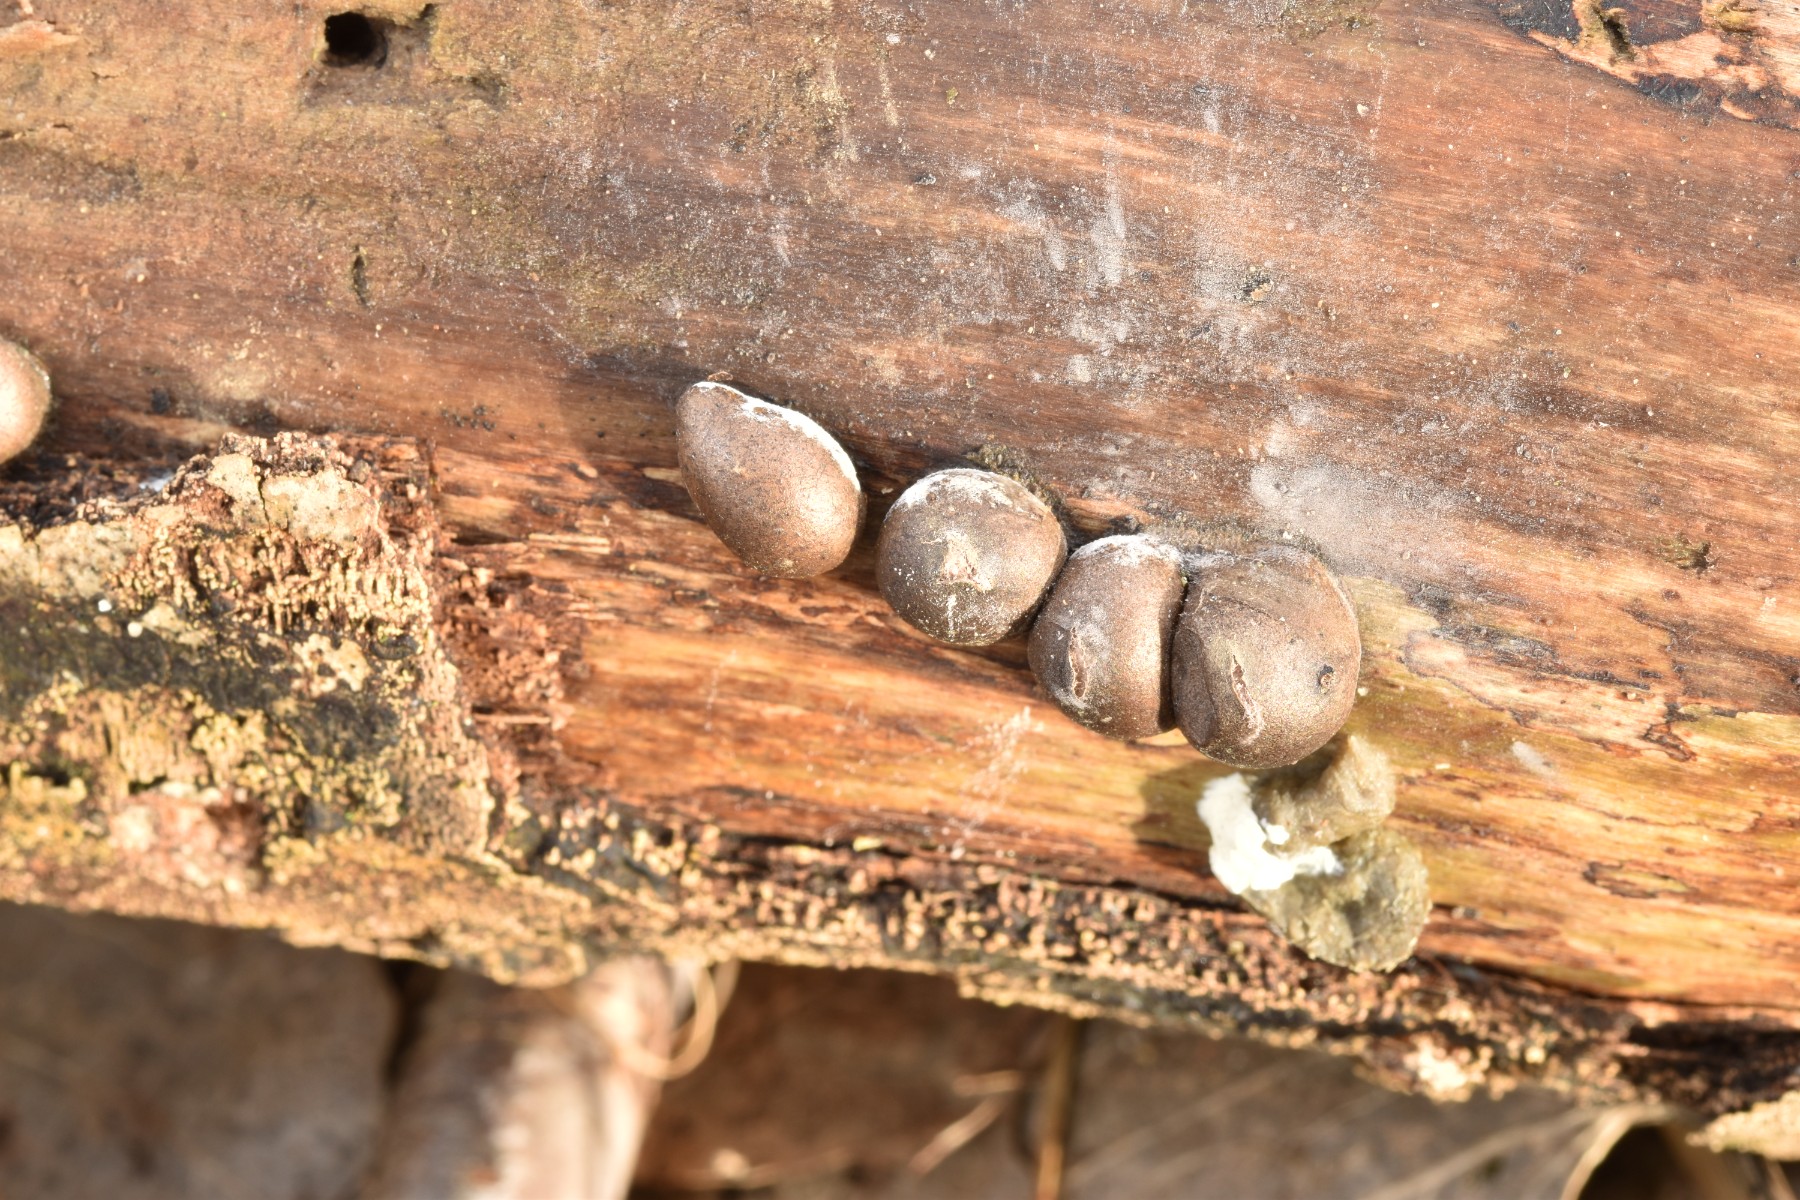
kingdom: Protozoa
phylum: Mycetozoa
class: Myxomycetes
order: Cribrariales
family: Tubiferaceae
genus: Lycogala
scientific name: Lycogala epidendrum
